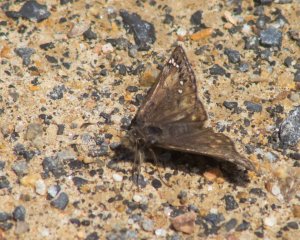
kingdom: Animalia
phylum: Arthropoda
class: Insecta
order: Lepidoptera
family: Hesperiidae
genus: Erynnis
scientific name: Erynnis
